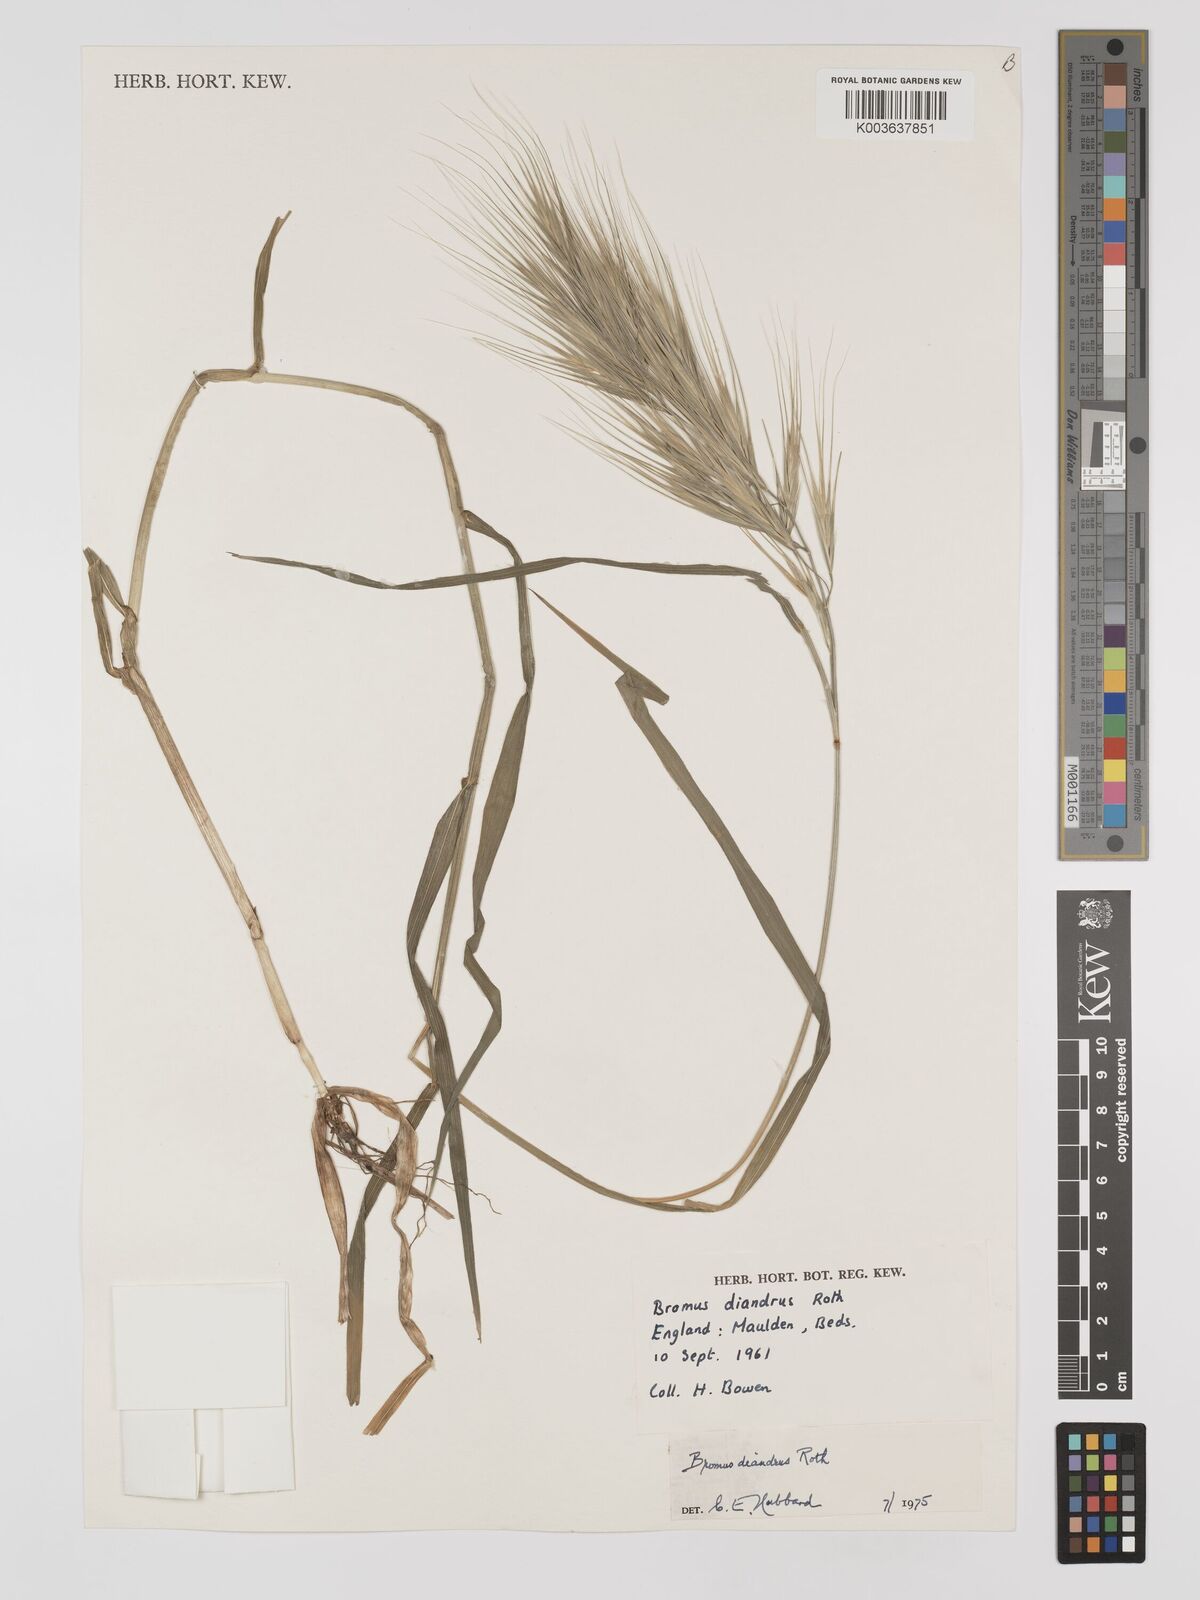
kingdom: Plantae
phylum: Tracheophyta
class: Liliopsida
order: Poales
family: Poaceae
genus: Bromus
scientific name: Bromus
